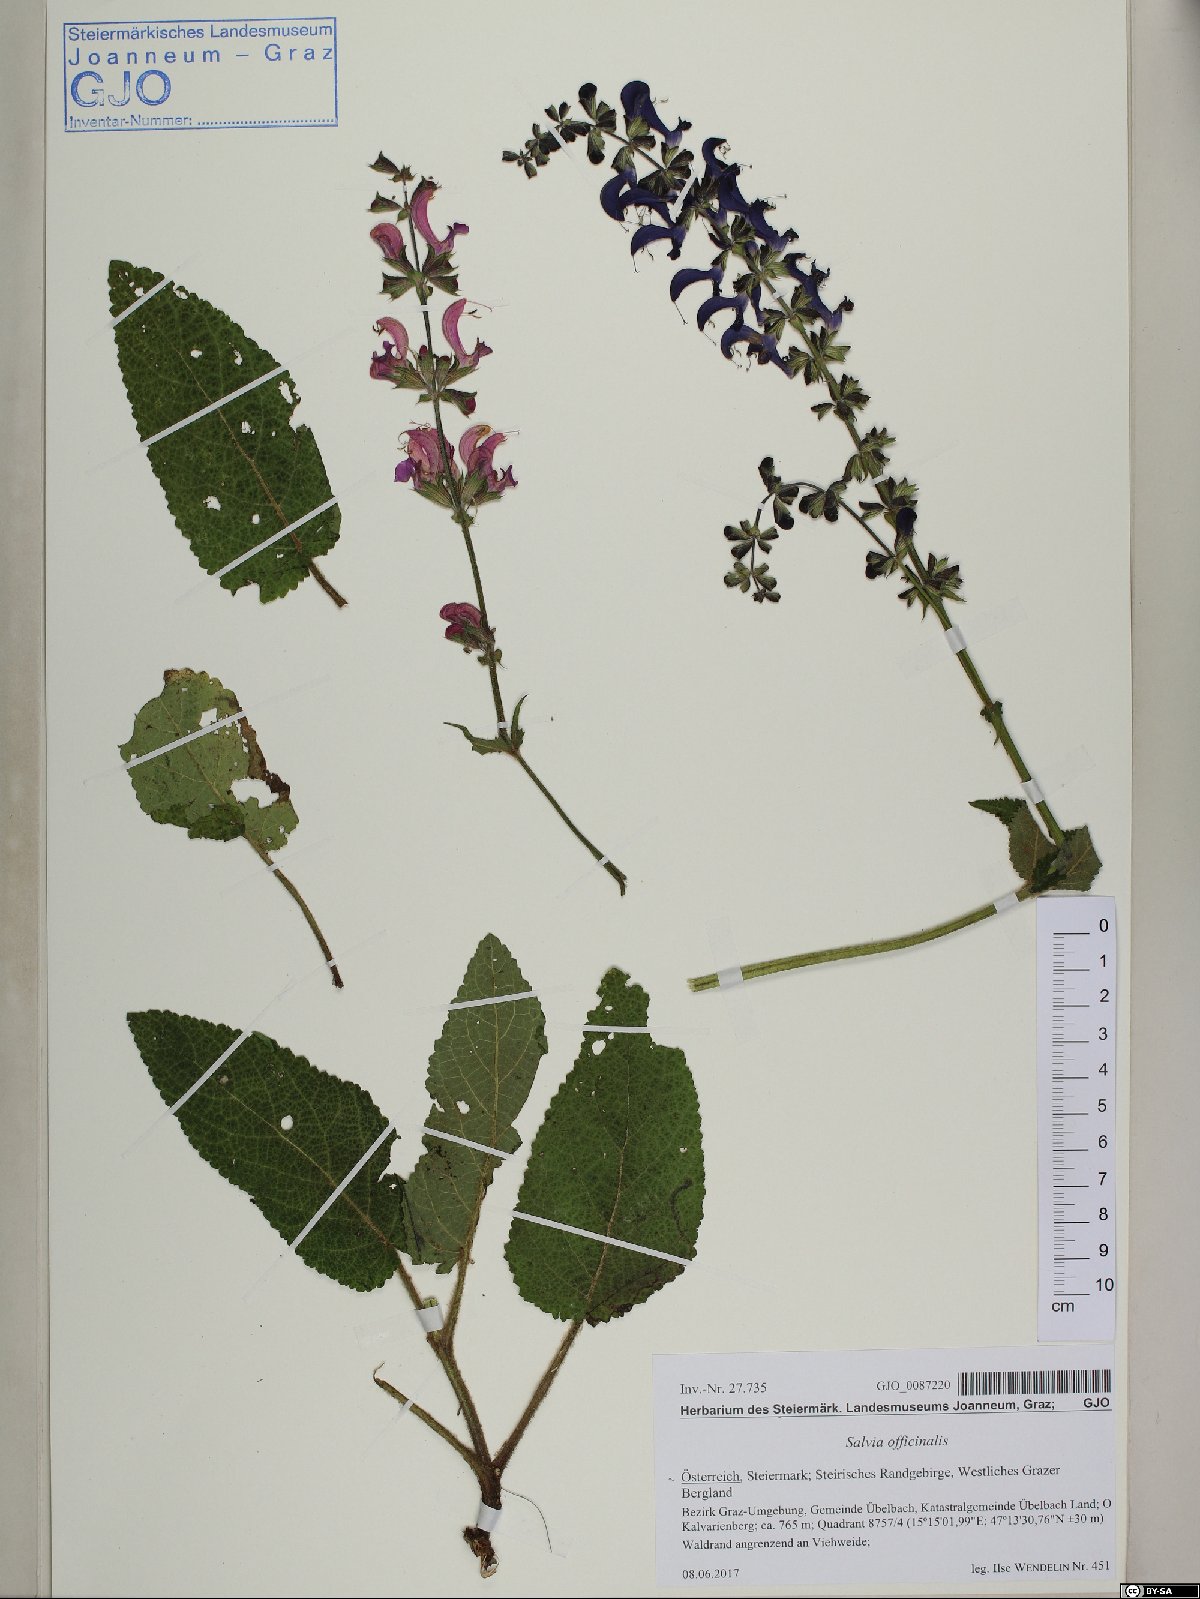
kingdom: Plantae
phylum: Tracheophyta
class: Magnoliopsida
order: Lamiales
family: Lamiaceae
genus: Salvia
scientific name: Salvia pratensis
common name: Meadow sage
